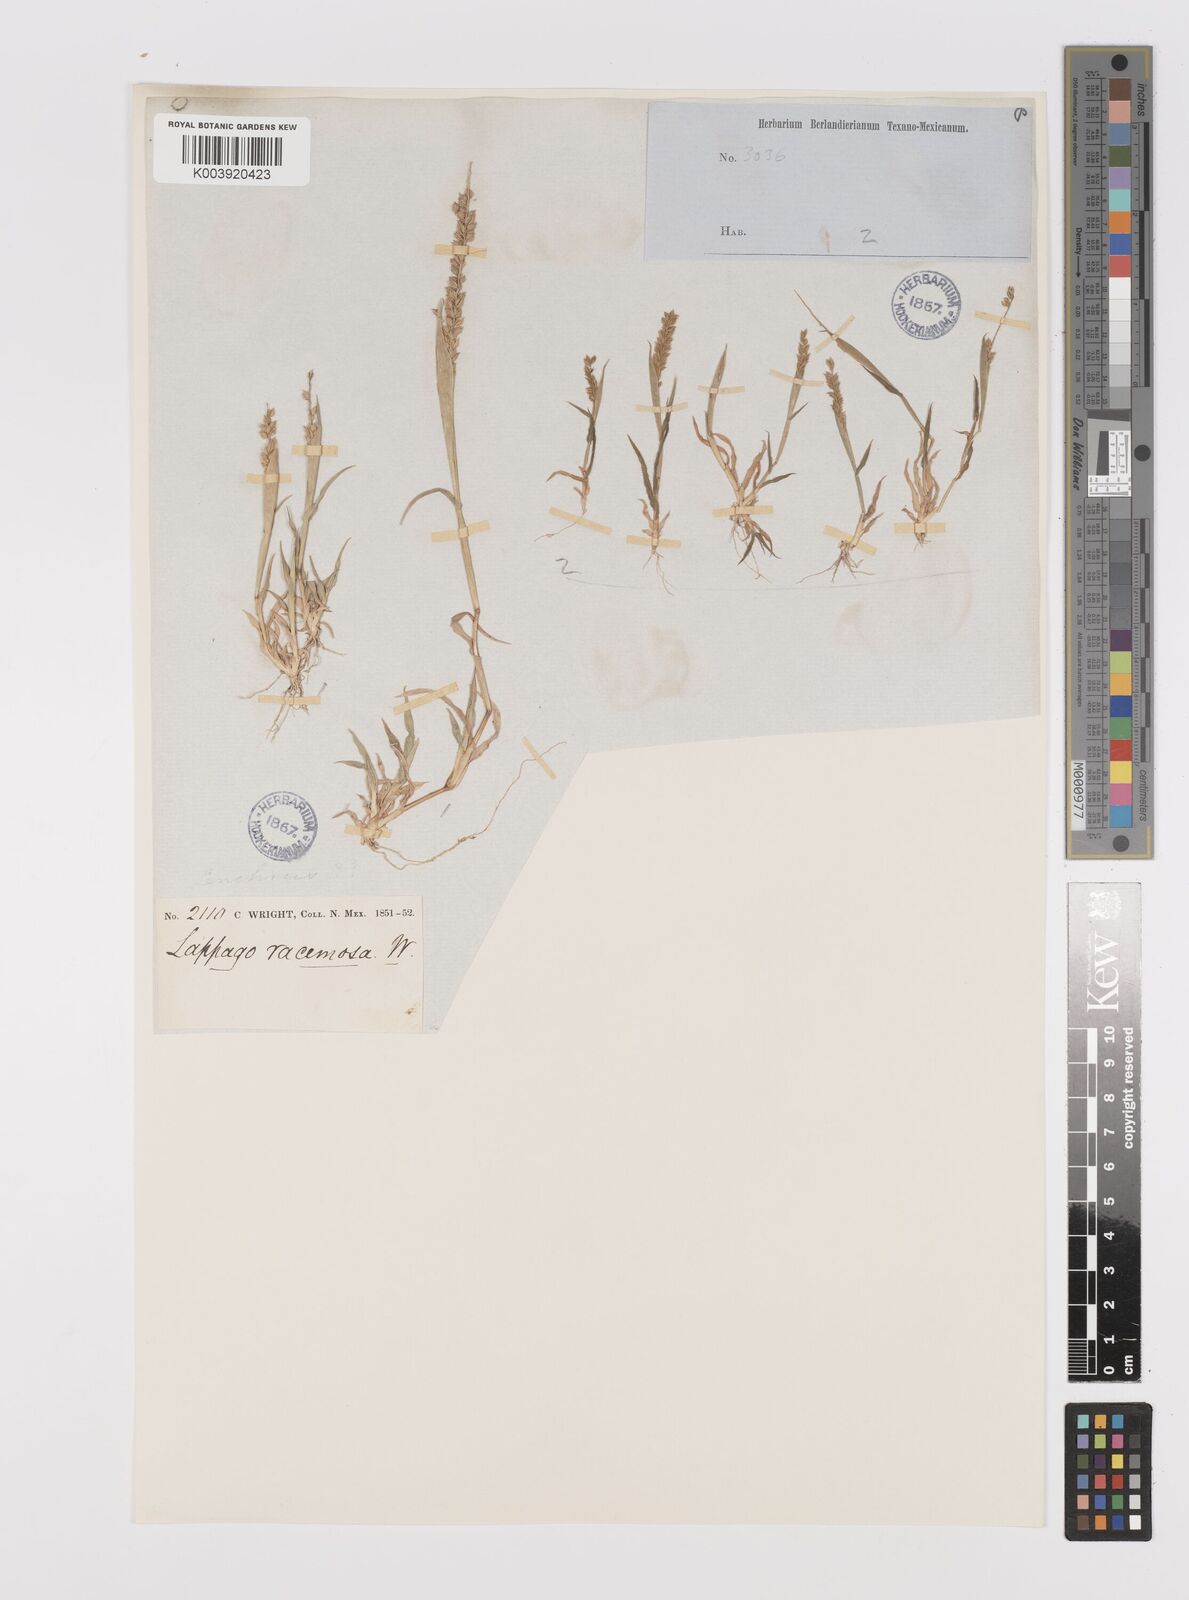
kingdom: Plantae
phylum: Tracheophyta
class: Liliopsida
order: Poales
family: Poaceae
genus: Tragus
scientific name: Tragus berteronianus
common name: African bur-grass
